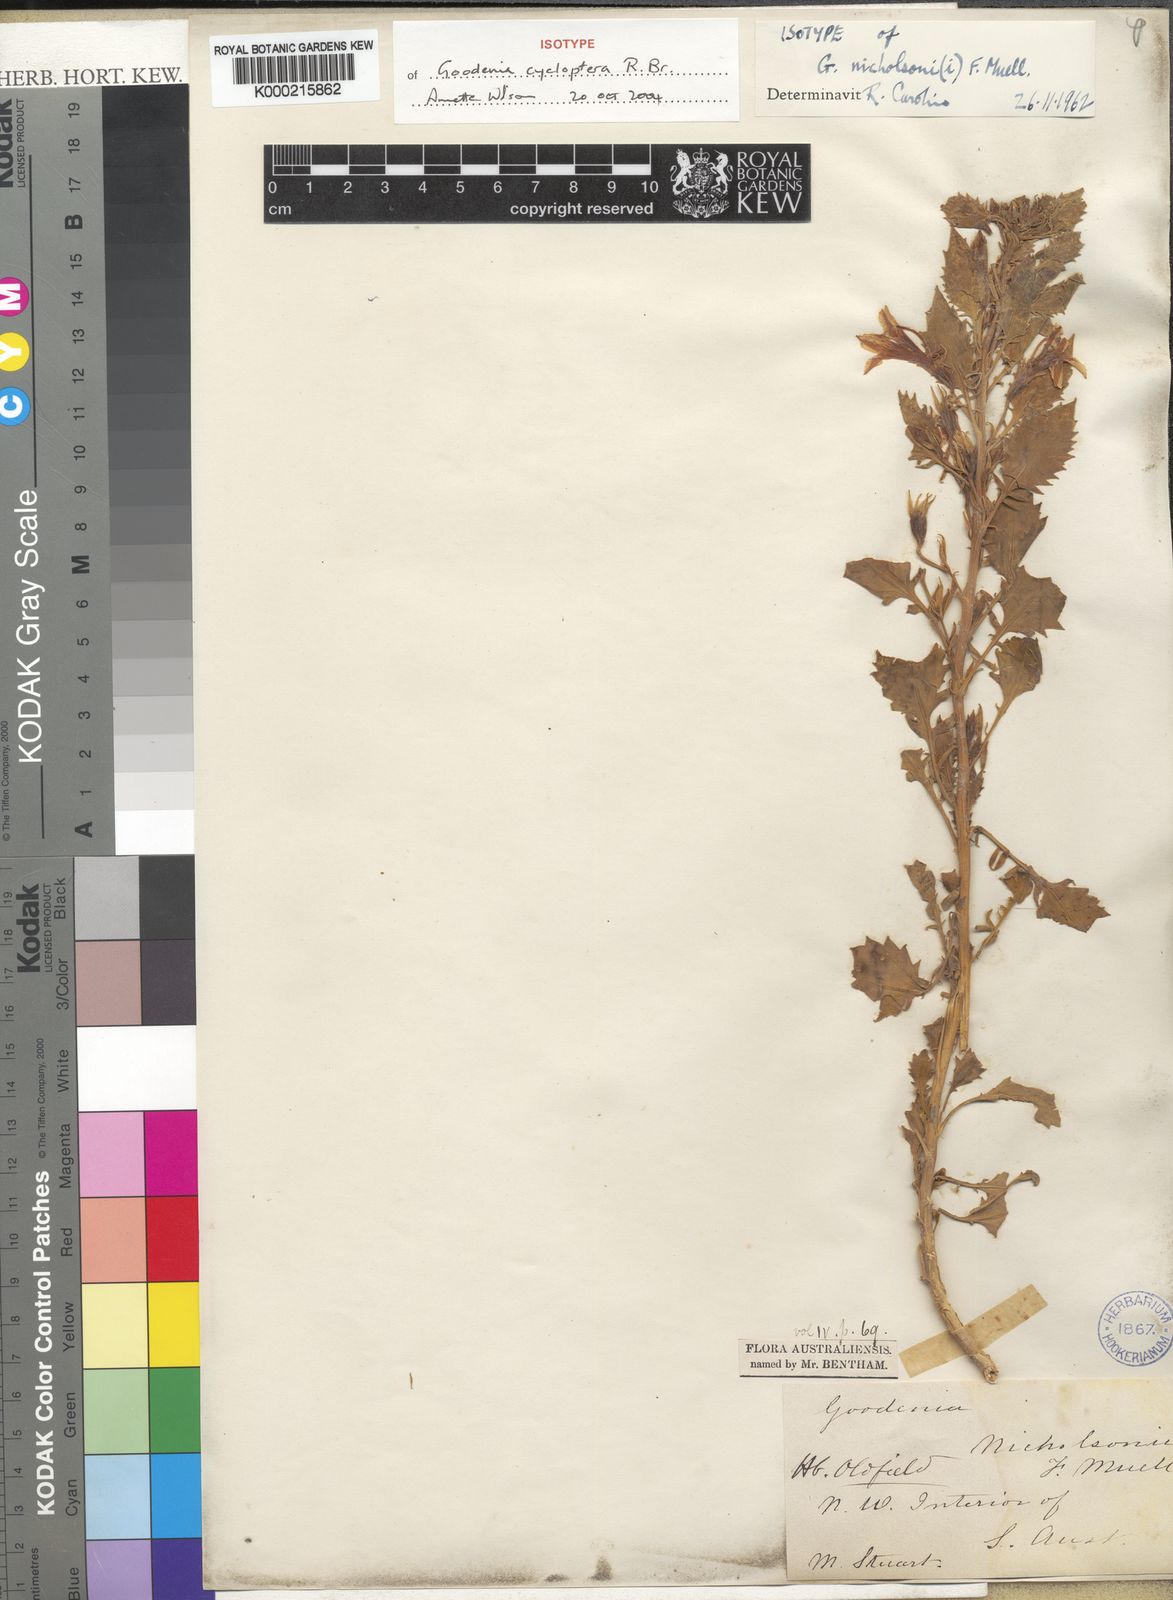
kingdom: Plantae
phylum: Tracheophyta
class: Magnoliopsida
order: Asterales
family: Goodeniaceae
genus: Goodenia
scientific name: Goodenia cycloptera
